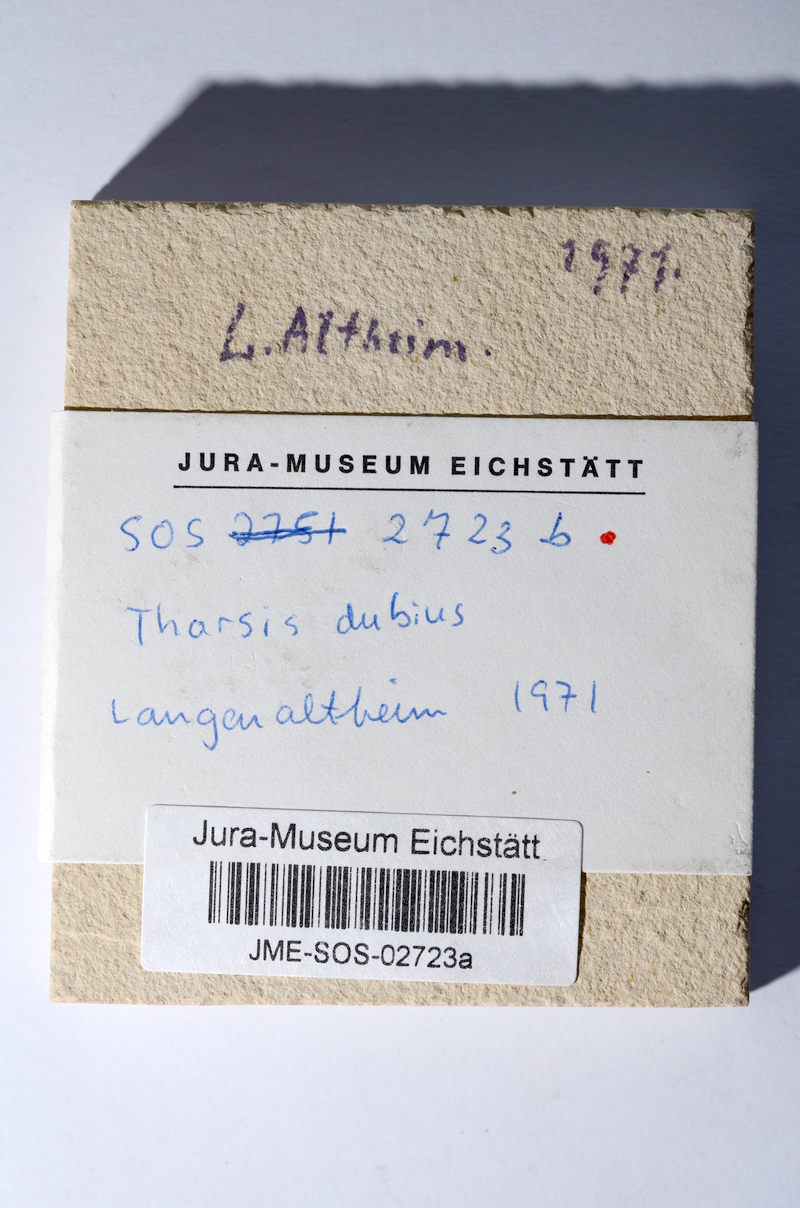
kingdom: Animalia
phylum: Chordata
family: Ascalaboidae
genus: Tharsis
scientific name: Tharsis dubius
